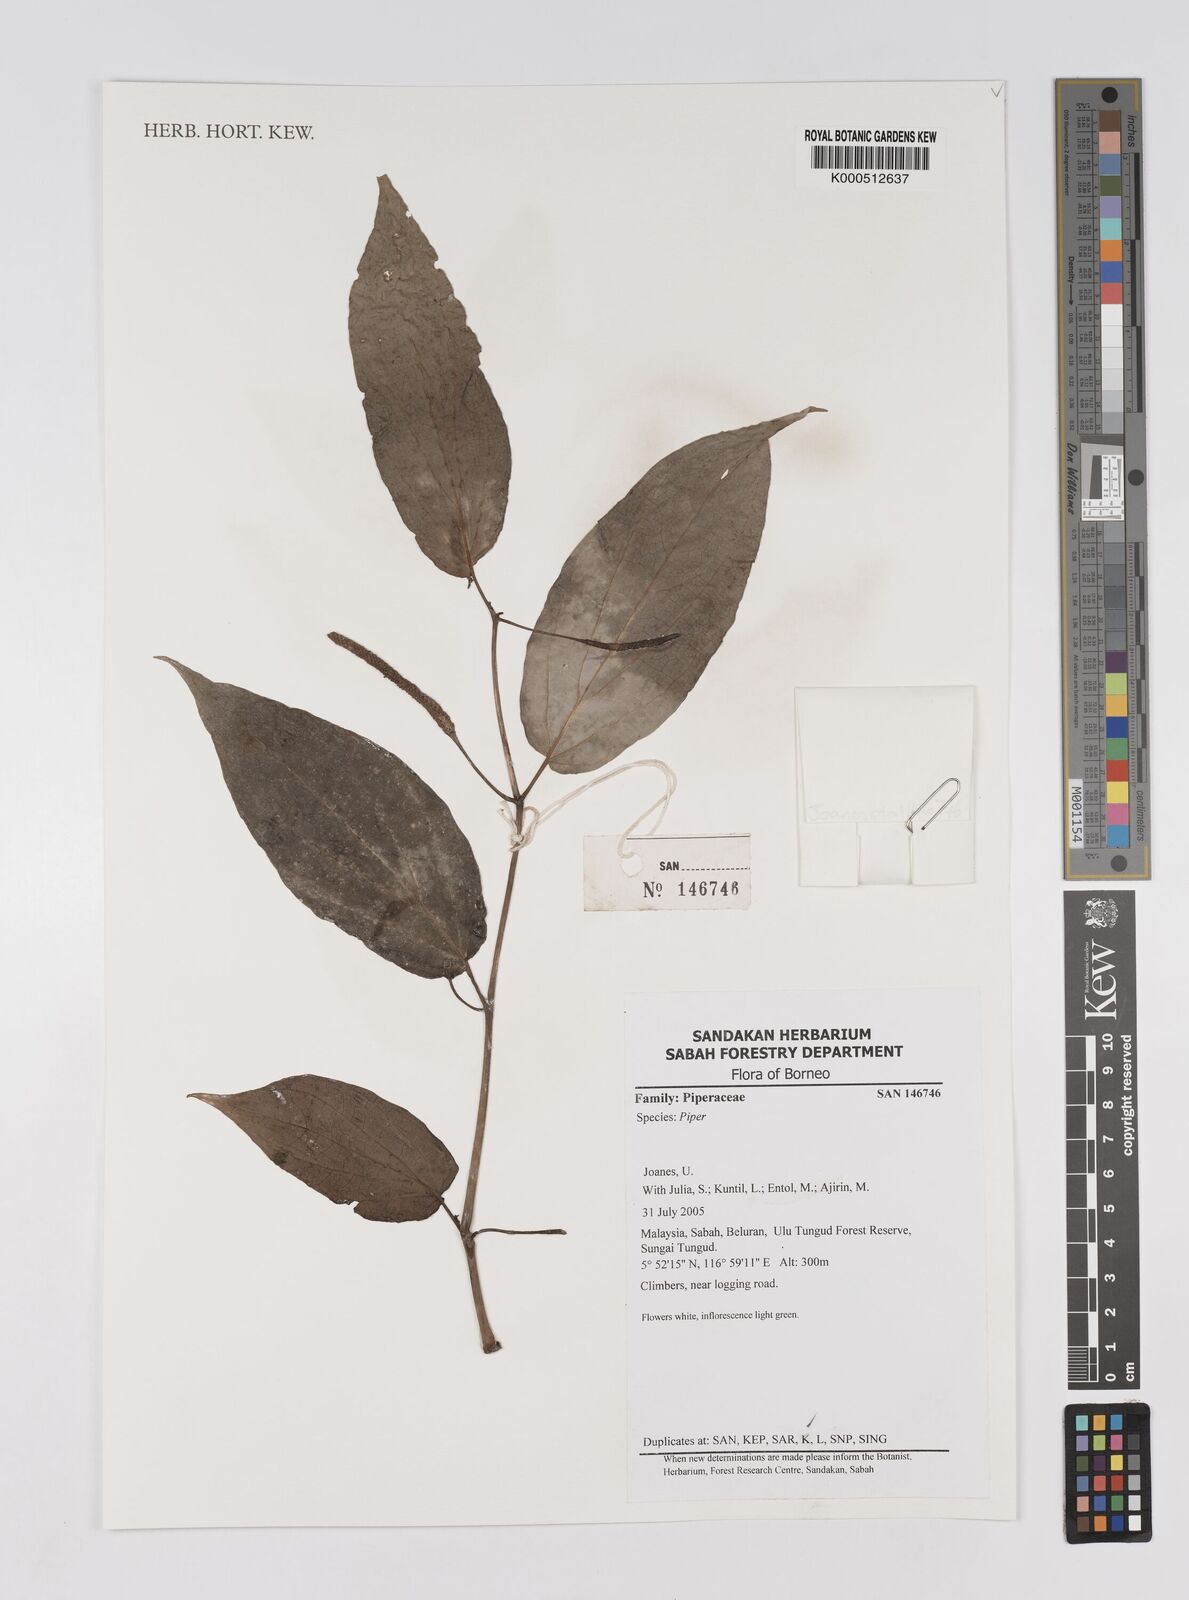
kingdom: Plantae
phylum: Tracheophyta
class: Magnoliopsida
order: Piperales
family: Piperaceae
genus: Piper
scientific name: Piper
